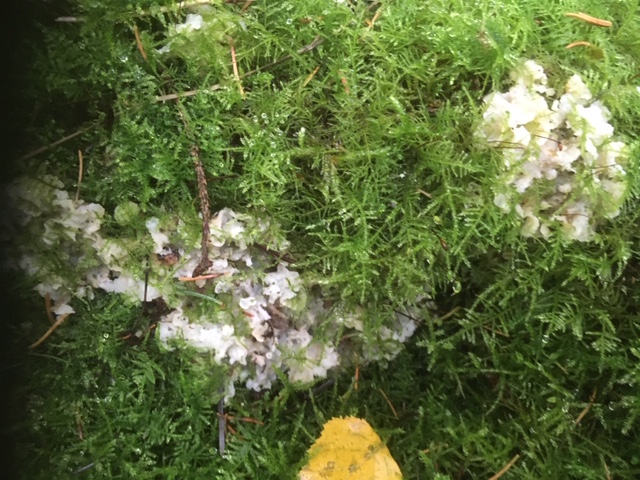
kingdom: Fungi
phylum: Basidiomycota
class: Agaricomycetes
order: Polyporales
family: Meruliaceae
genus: Physisporinus
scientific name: Physisporinus vitreus
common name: mastesvamp
